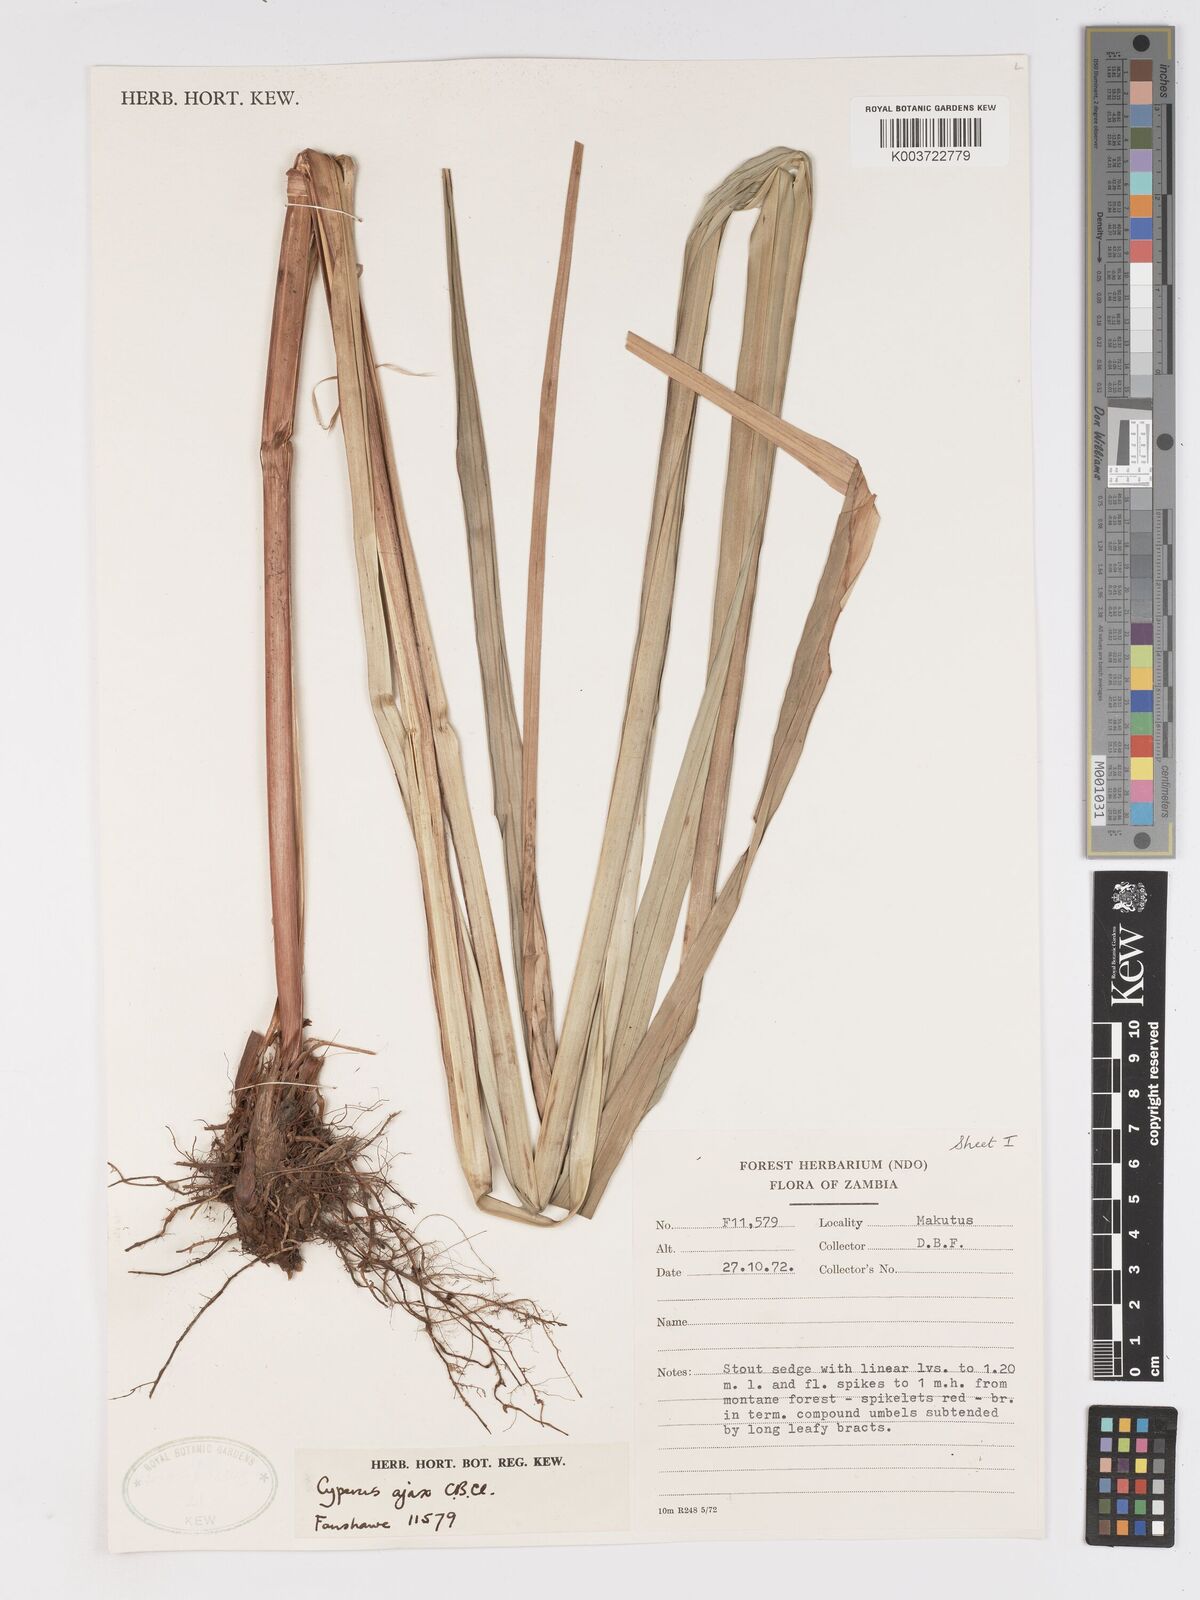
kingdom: Plantae
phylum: Tracheophyta
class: Liliopsida
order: Poales
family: Cyperaceae
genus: Cyperus
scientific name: Cyperus ajax
